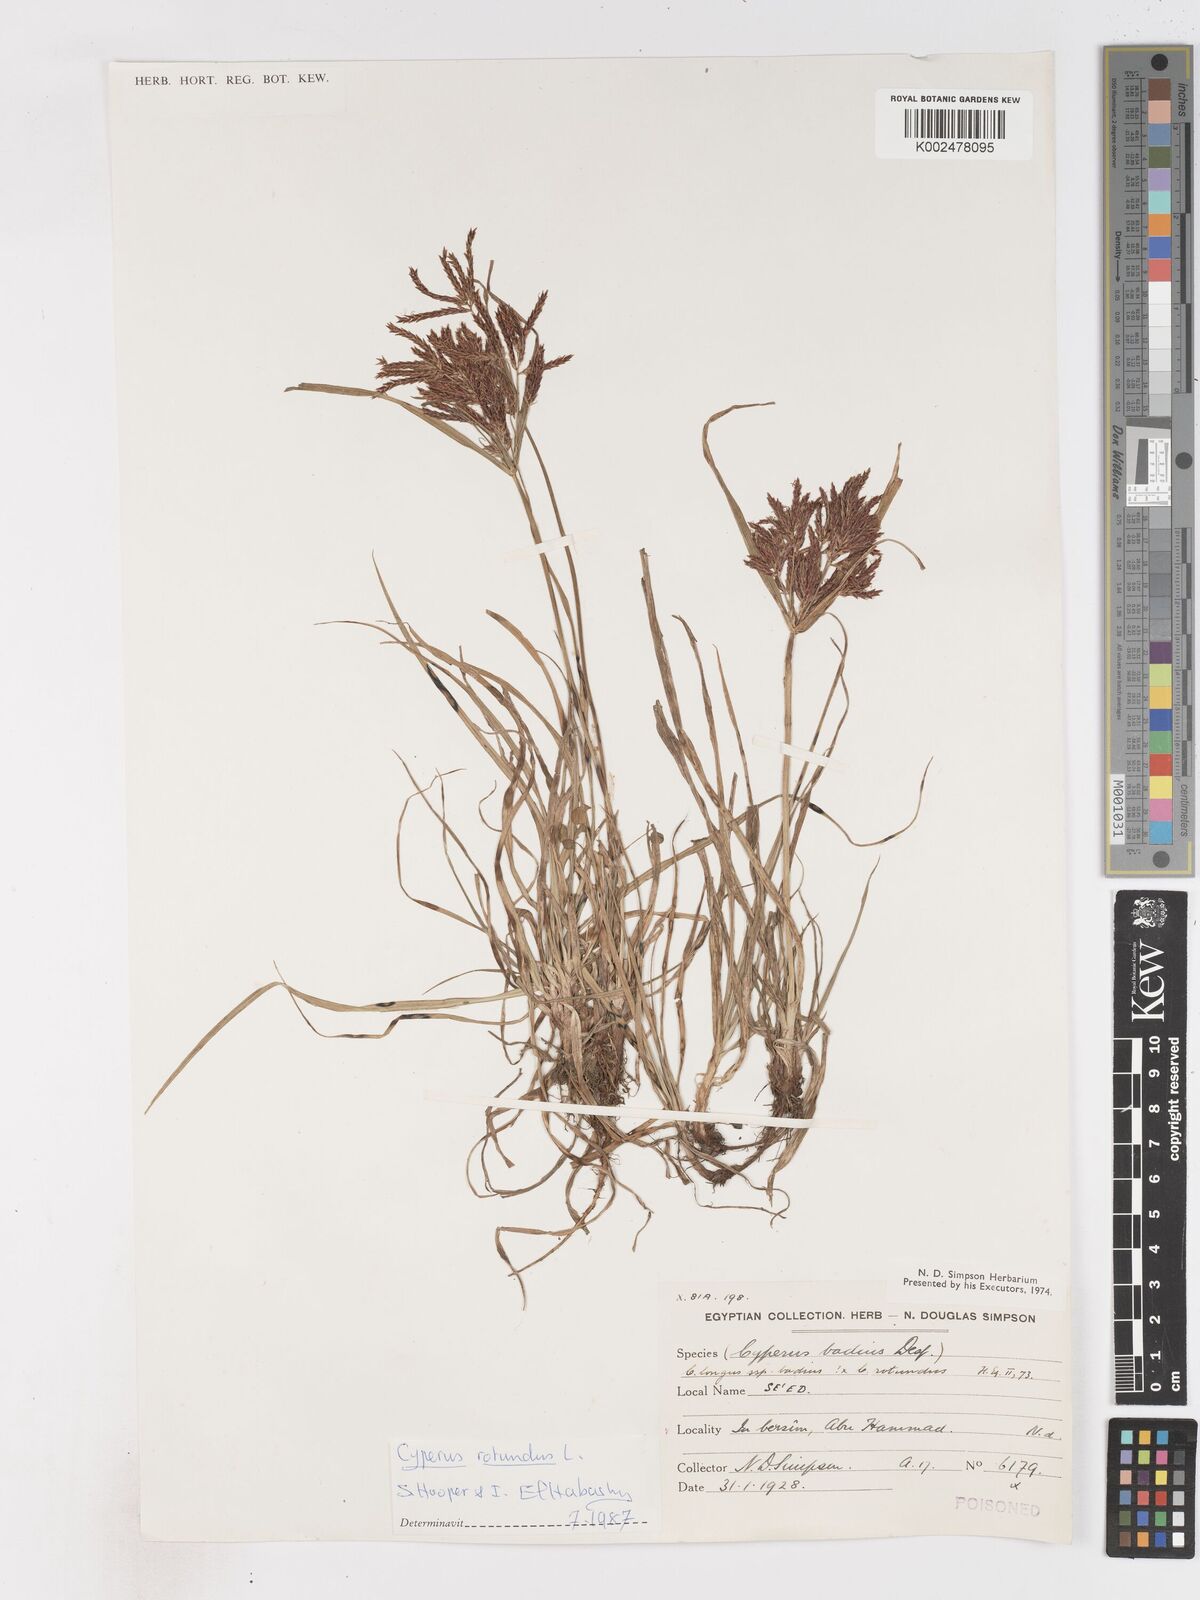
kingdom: Plantae
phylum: Tracheophyta
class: Liliopsida
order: Poales
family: Cyperaceae
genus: Cyperus
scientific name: Cyperus rotundus
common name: Nutgrass
